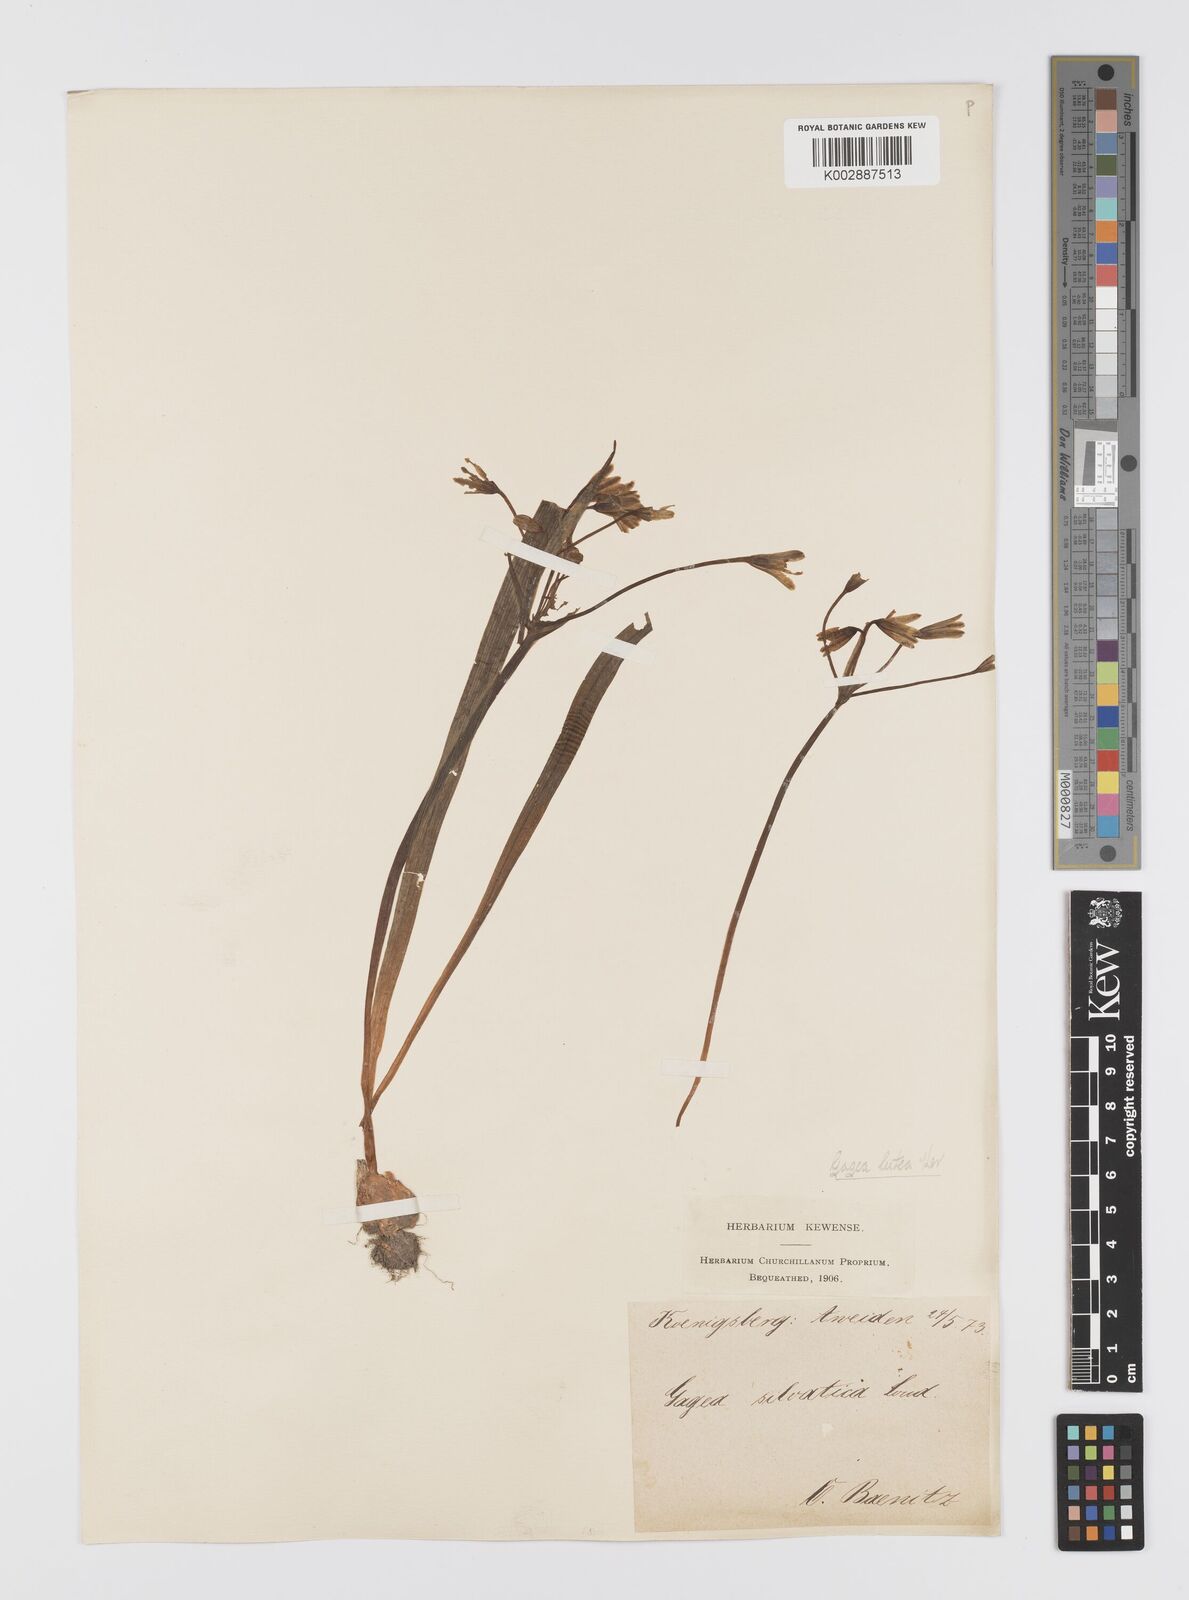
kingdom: Plantae
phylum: Tracheophyta
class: Liliopsida
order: Liliales
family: Liliaceae
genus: Gagea
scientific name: Gagea lutea
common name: Yellow star-of-bethlehem
